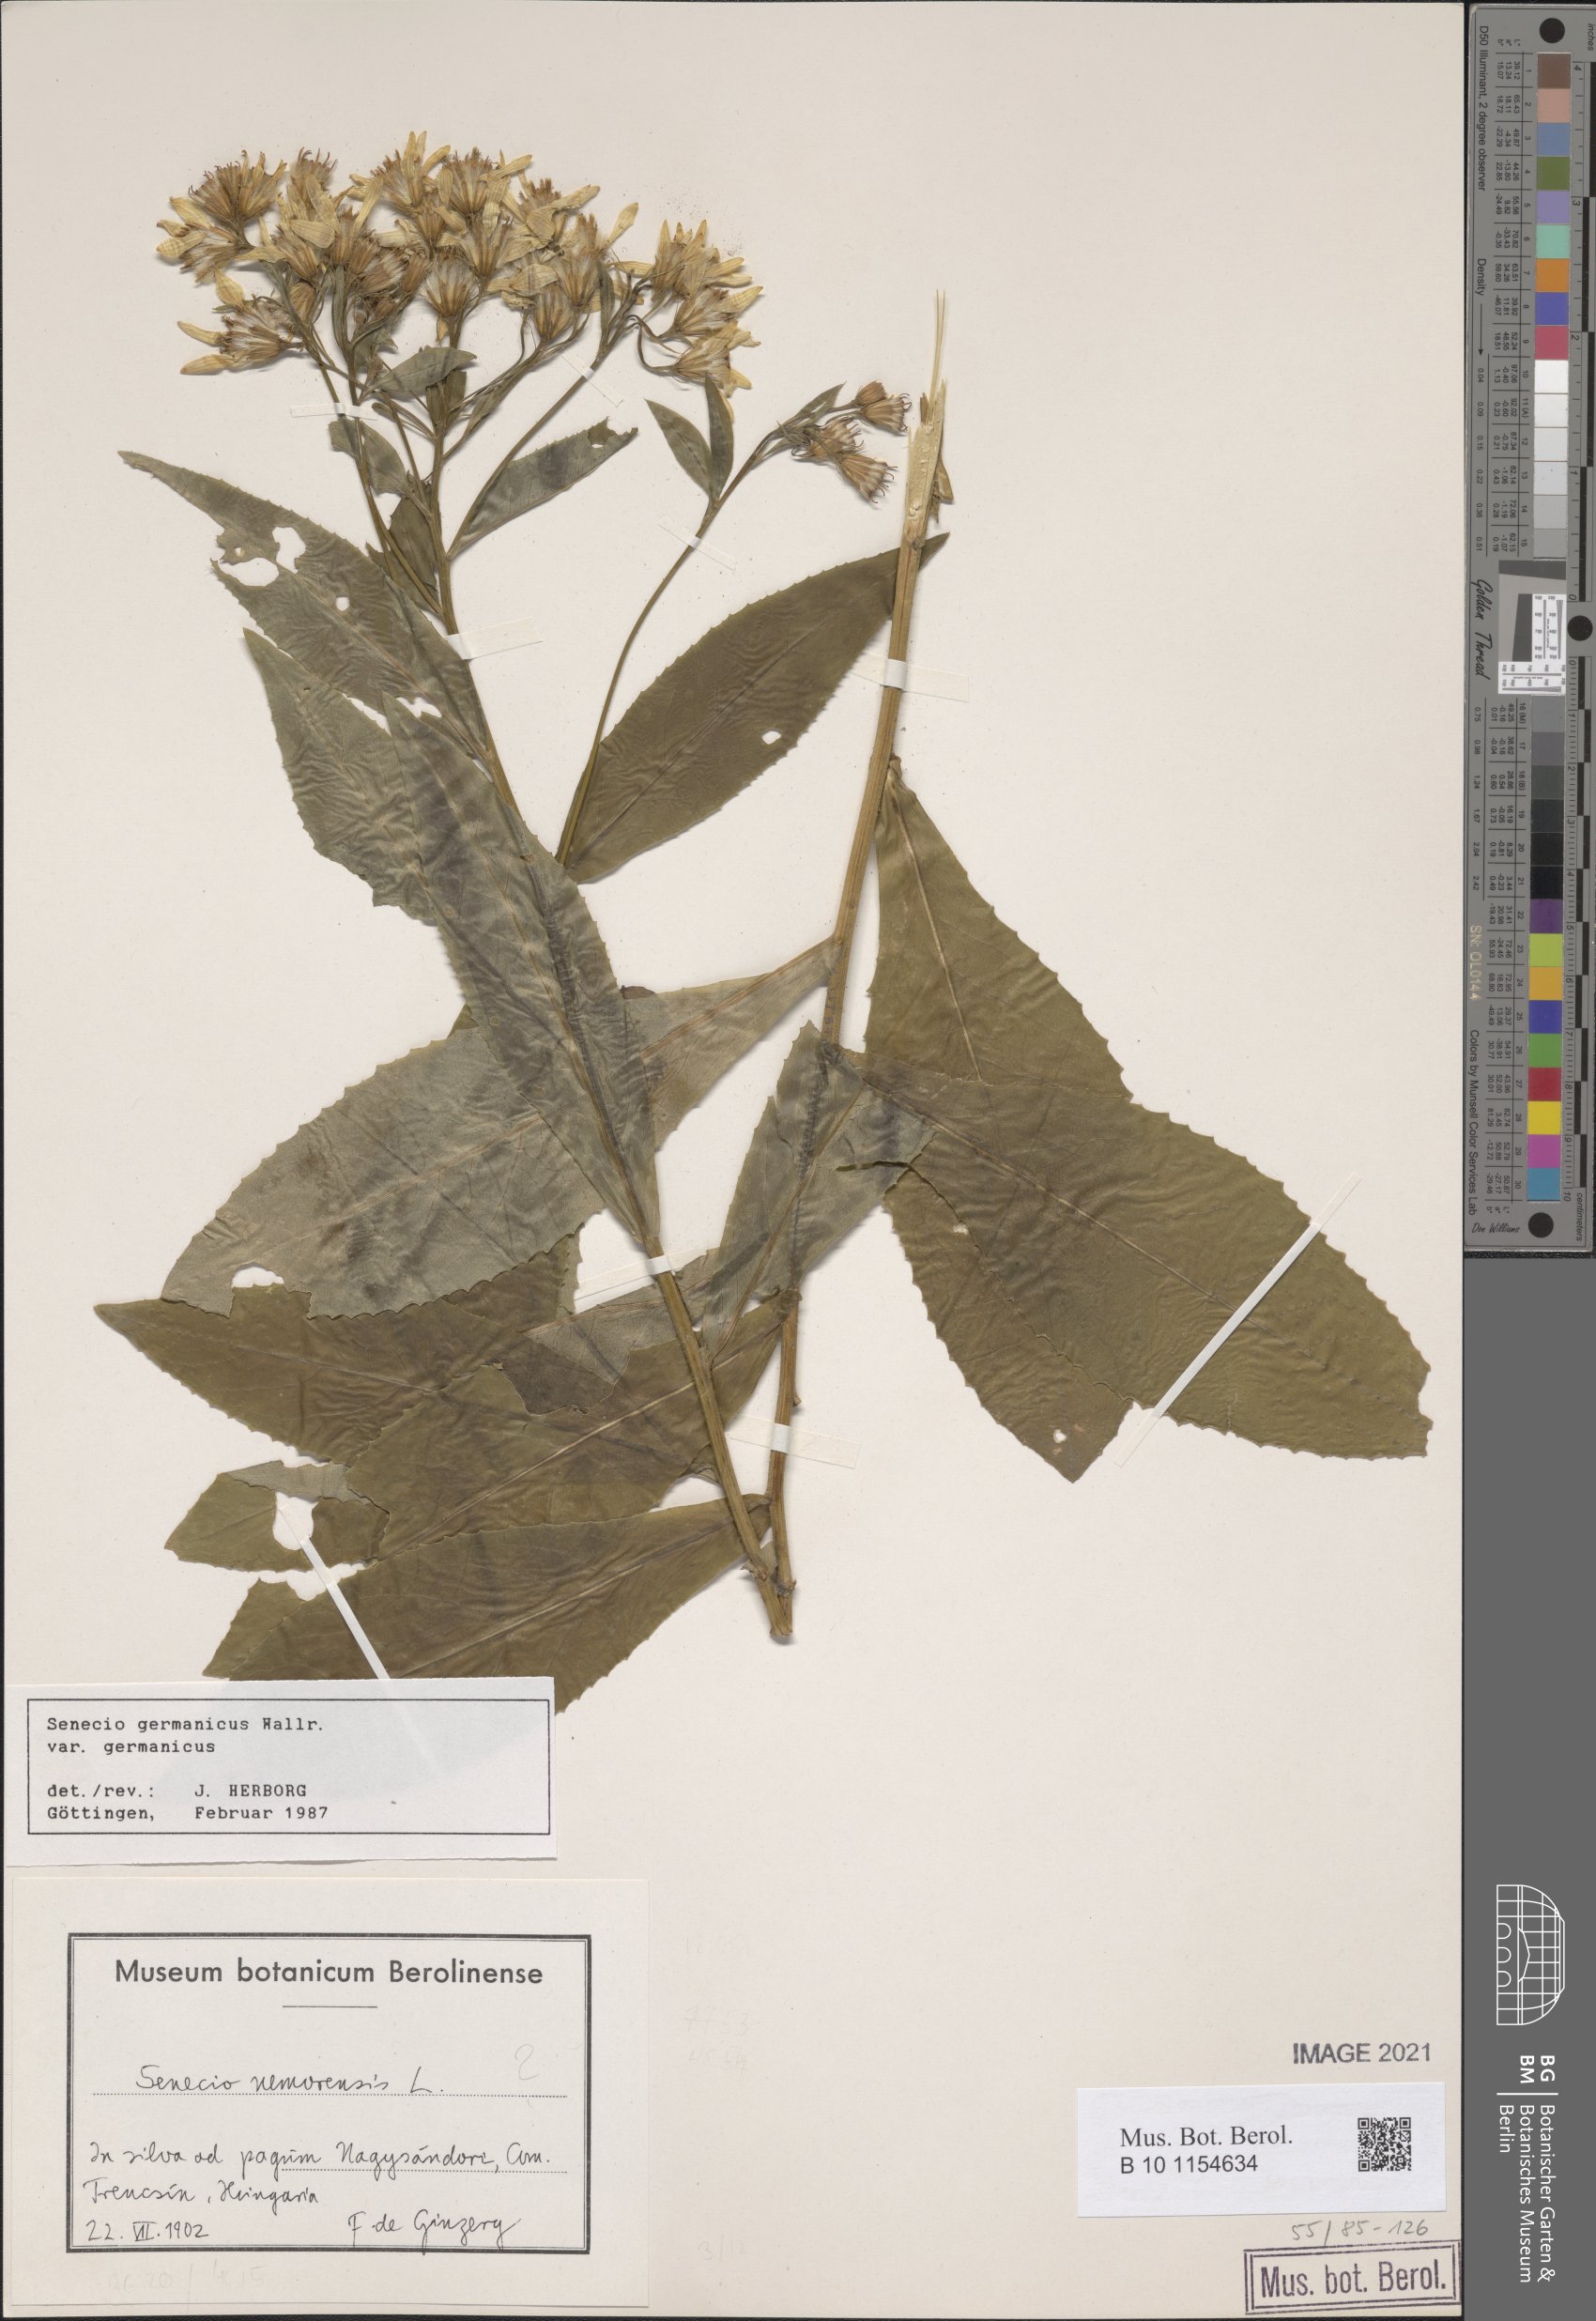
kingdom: Plantae
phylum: Tracheophyta
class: Magnoliopsida
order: Asterales
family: Asteraceae
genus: Senecio
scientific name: Senecio germanicus
